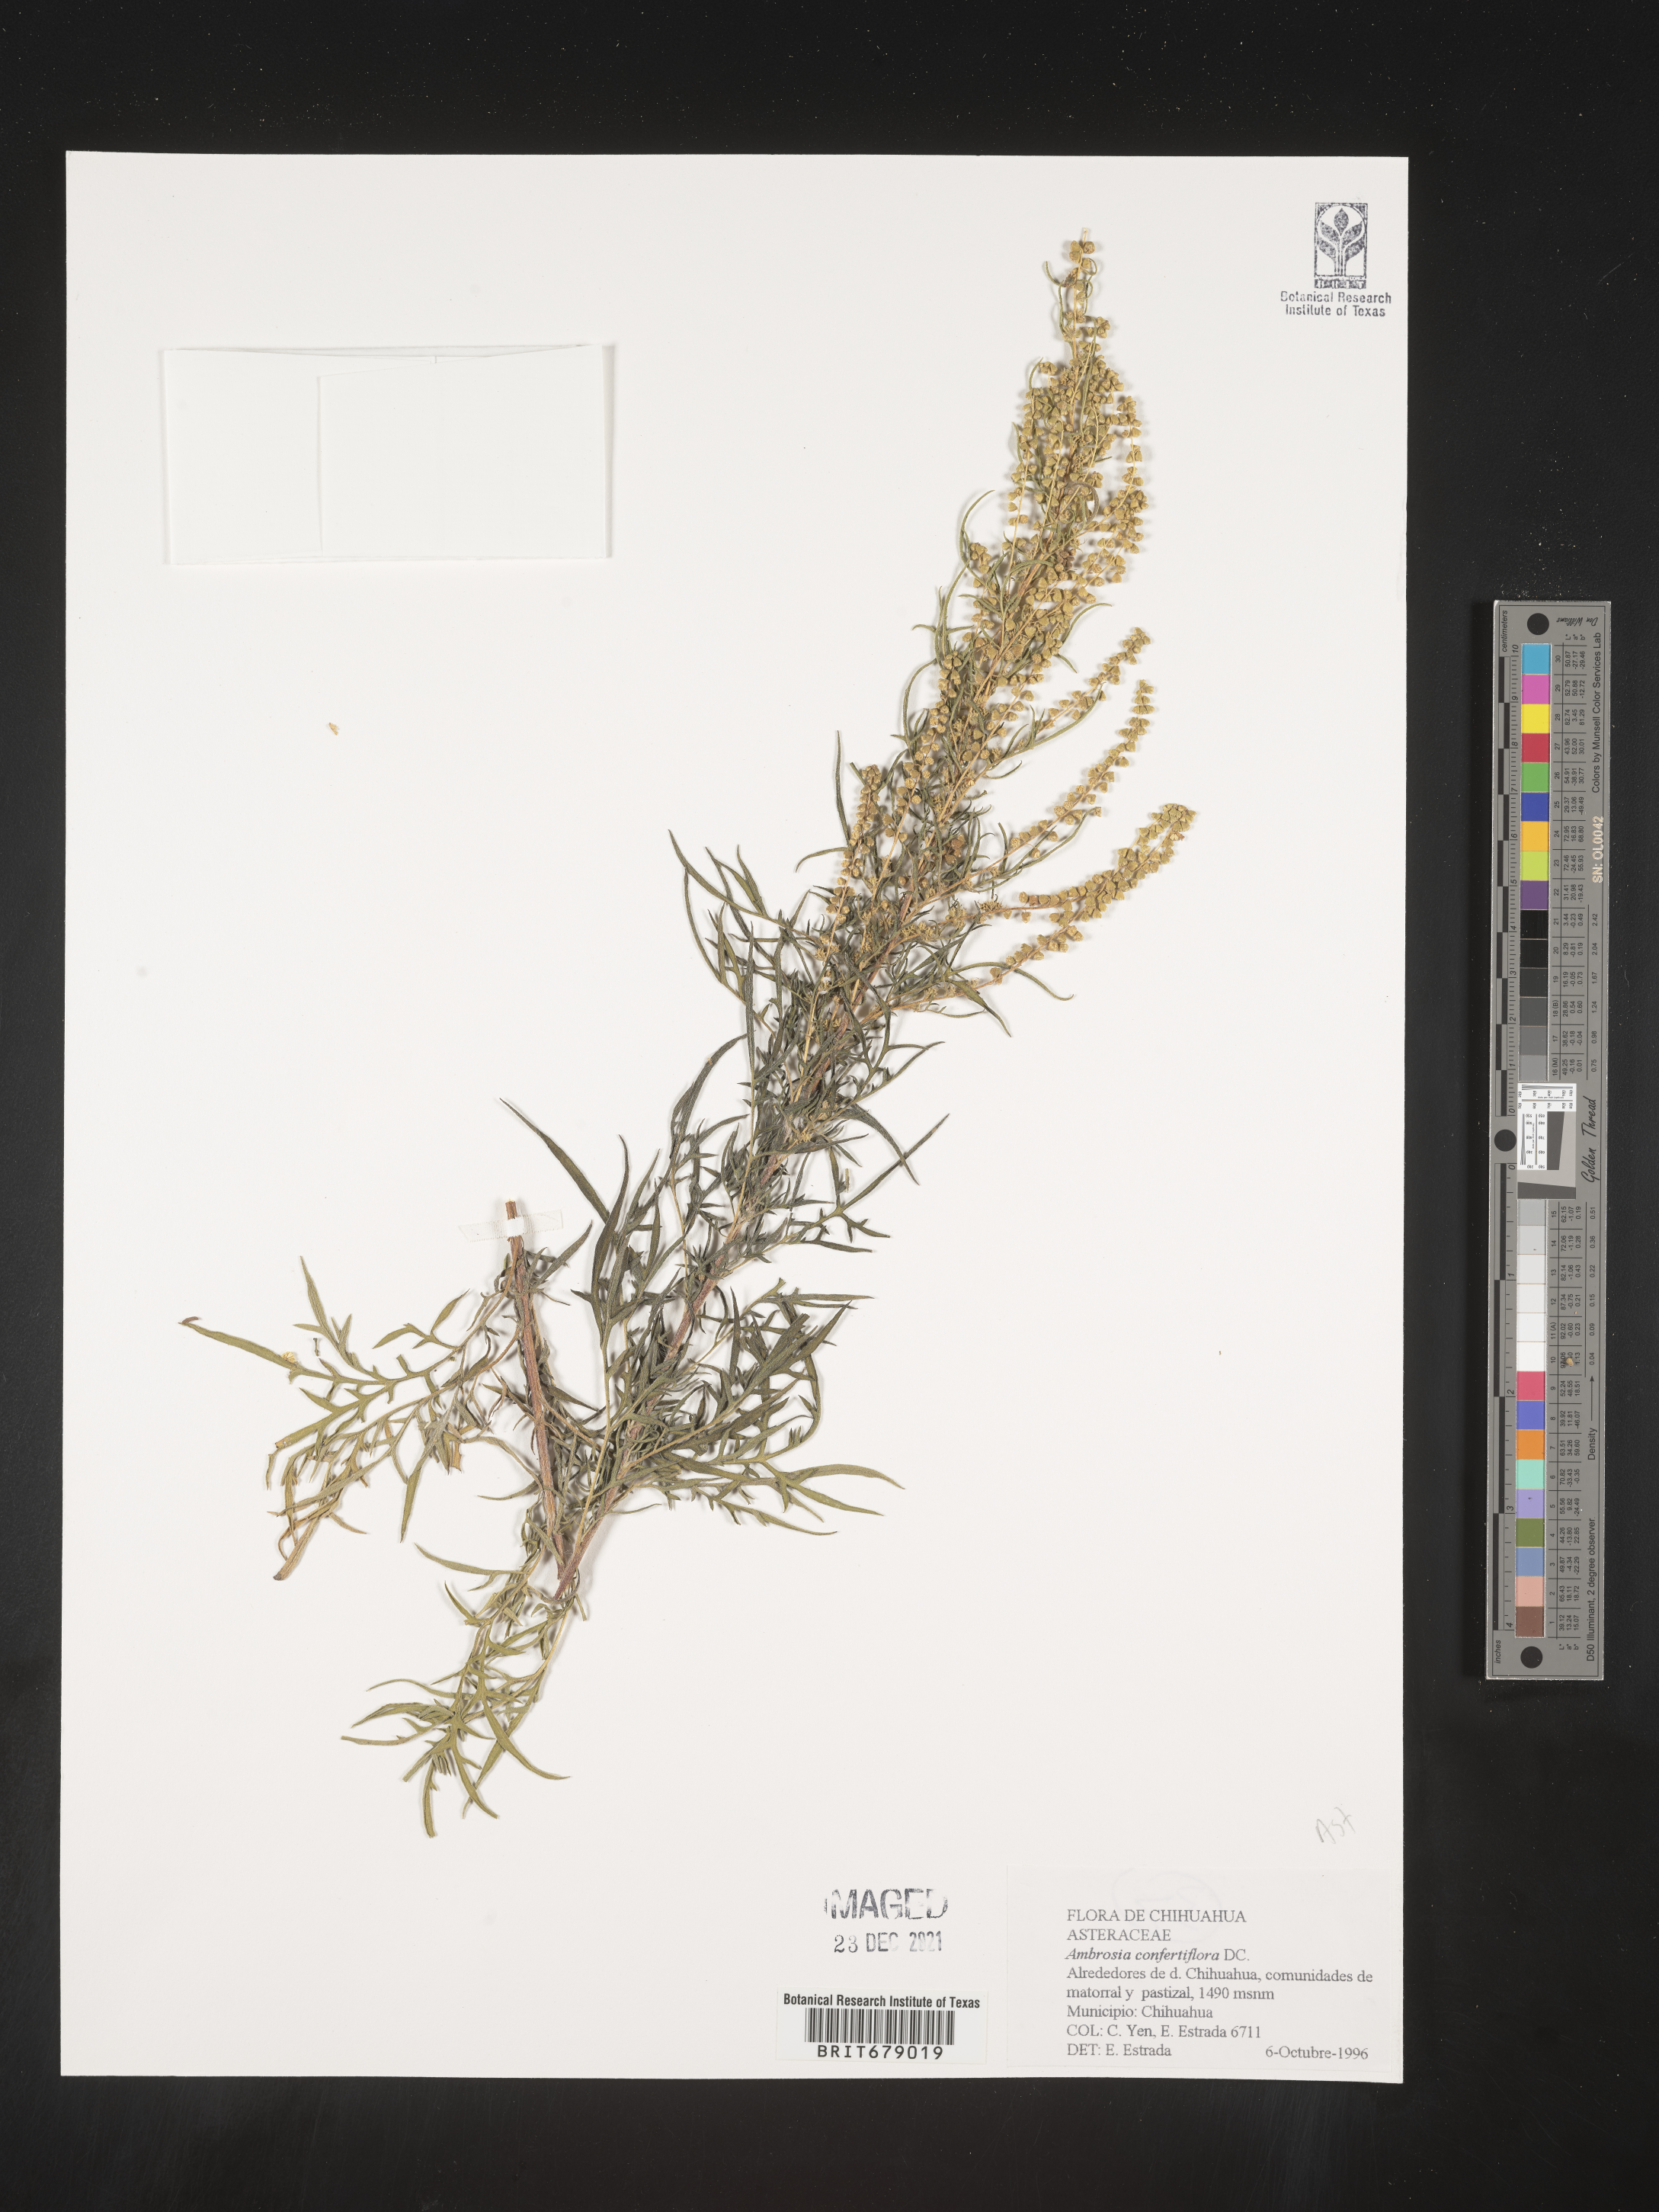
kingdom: Plantae
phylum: Tracheophyta
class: Magnoliopsida
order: Asterales
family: Asteraceae
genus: Ambrosia
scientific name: Ambrosia
